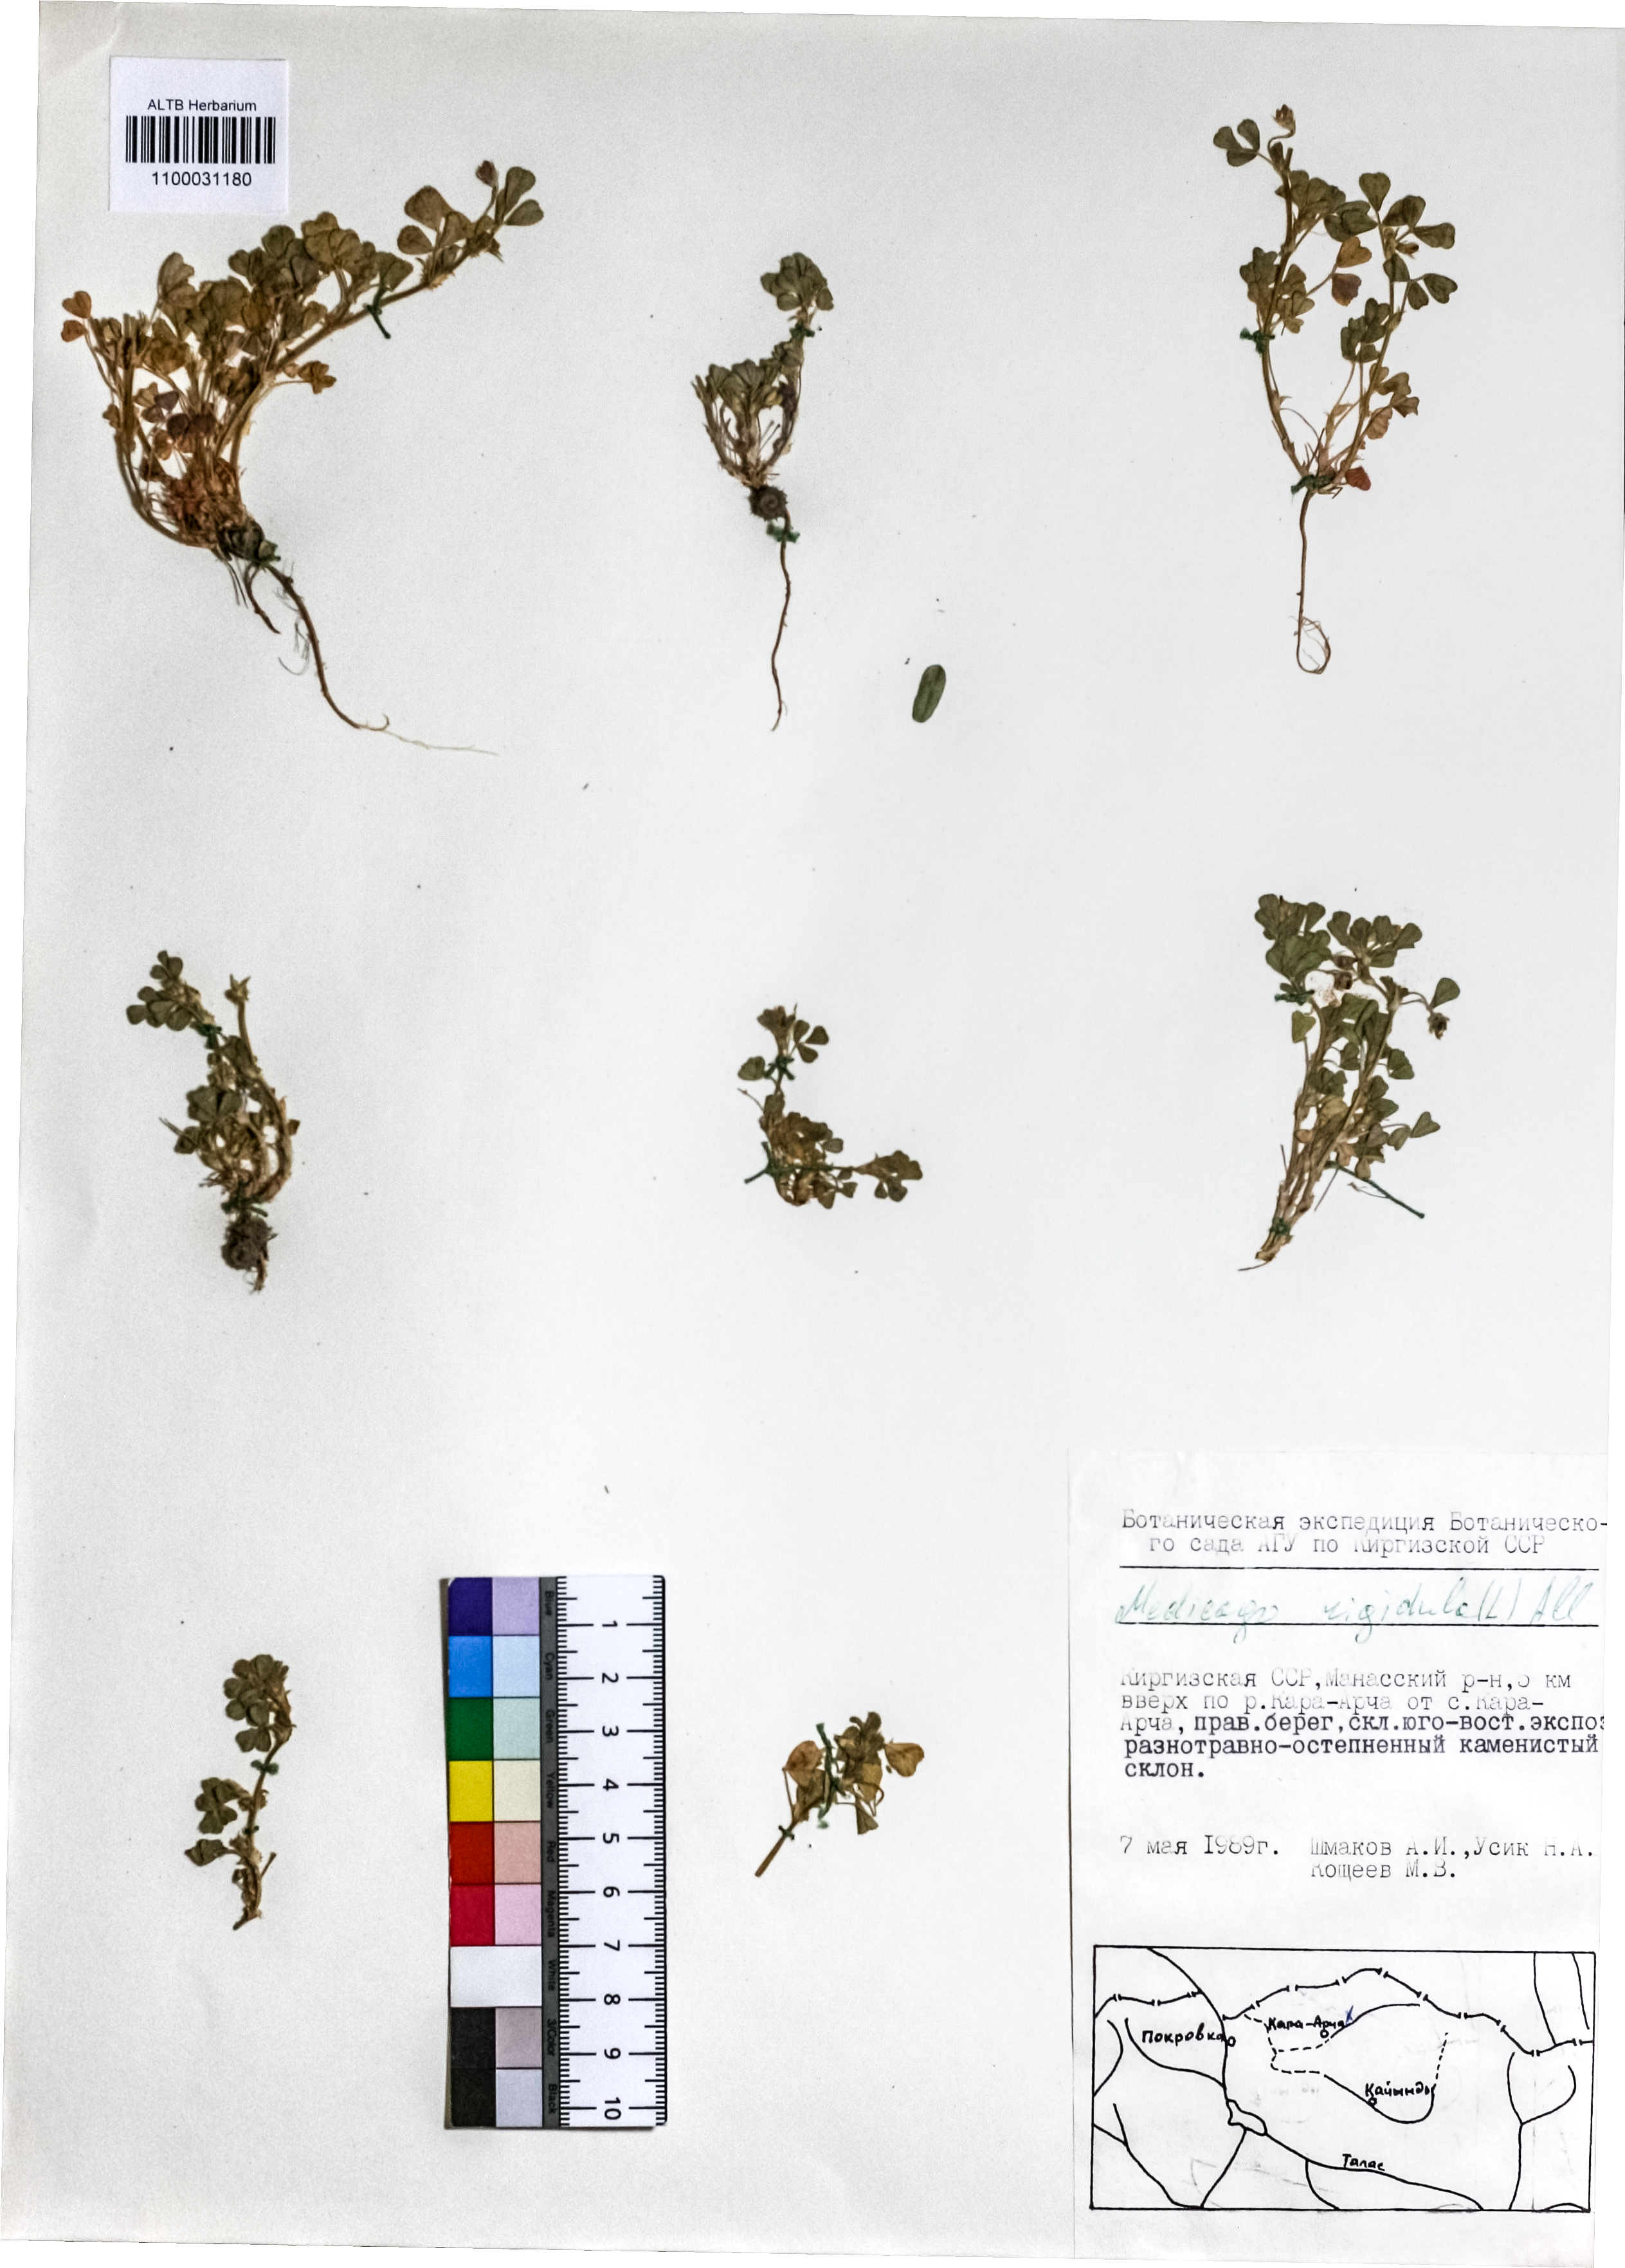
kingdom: Plantae
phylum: Tracheophyta
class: Magnoliopsida
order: Fabales
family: Fabaceae
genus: Medicago
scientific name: Medicago rigidula
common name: Tifton medic
